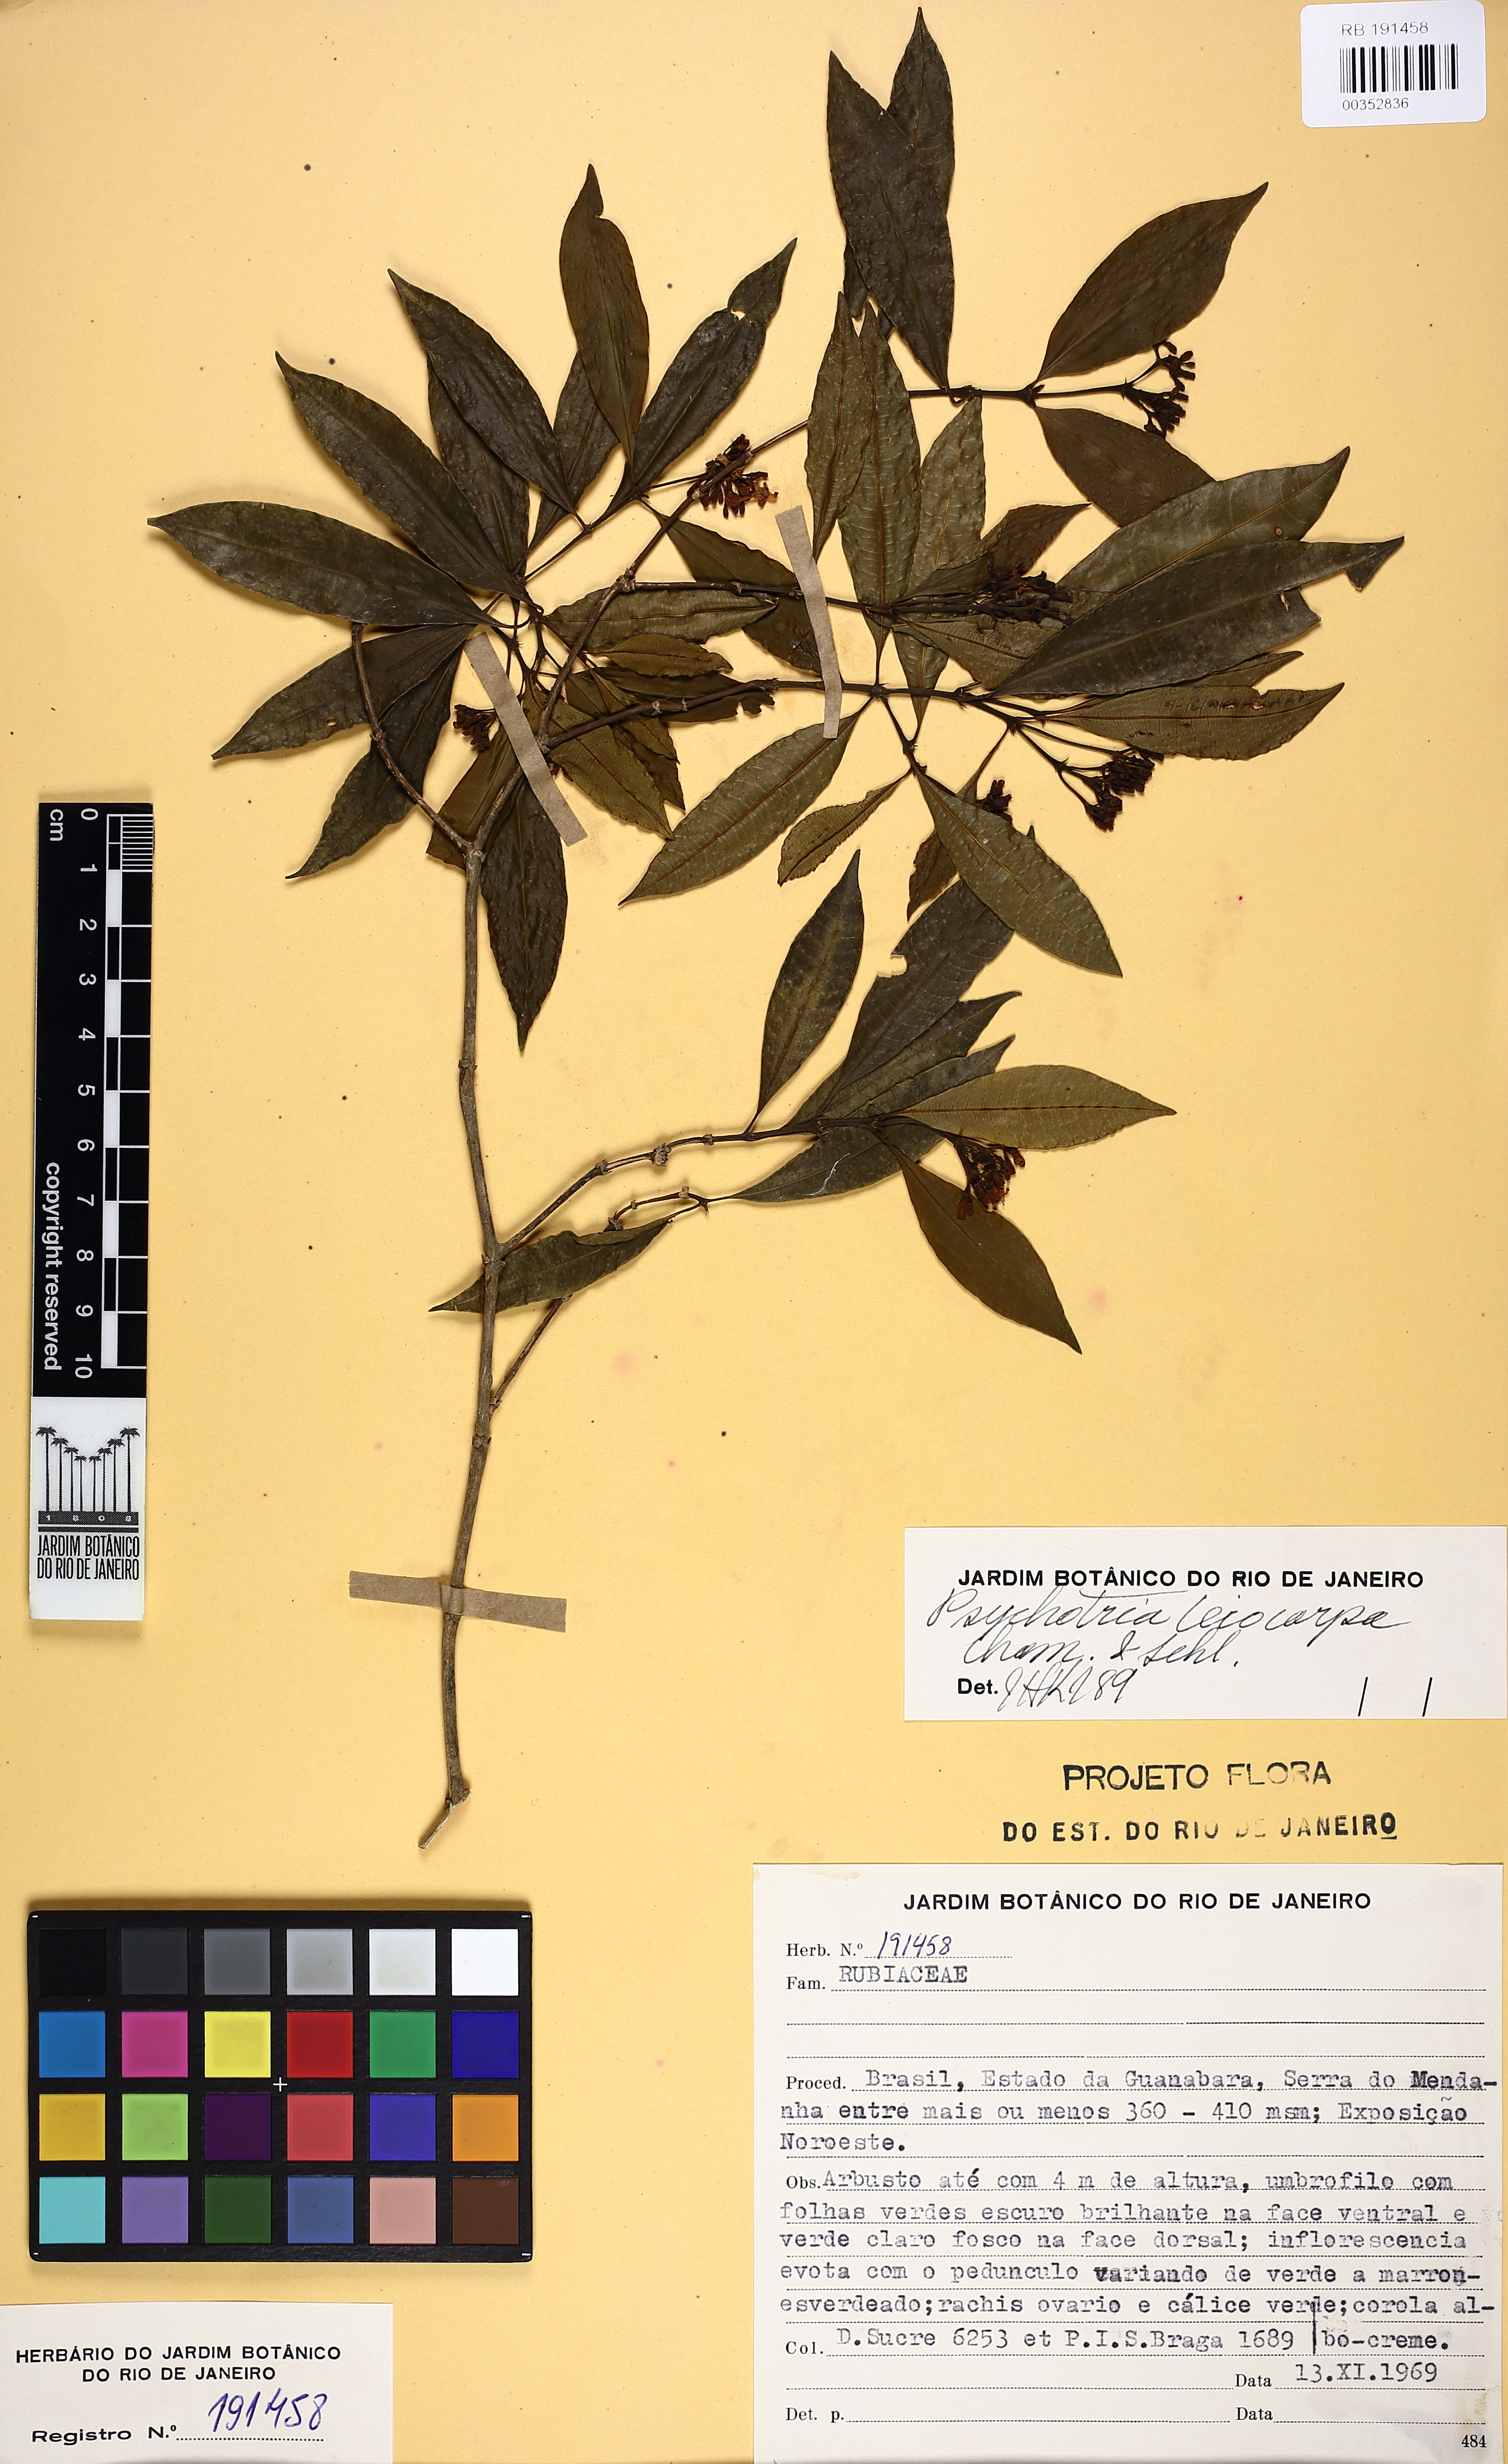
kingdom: Plantae
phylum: Tracheophyta
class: Magnoliopsida
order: Gentianales
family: Rubiaceae
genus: Psychotria
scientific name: Psychotria leiocarpa
